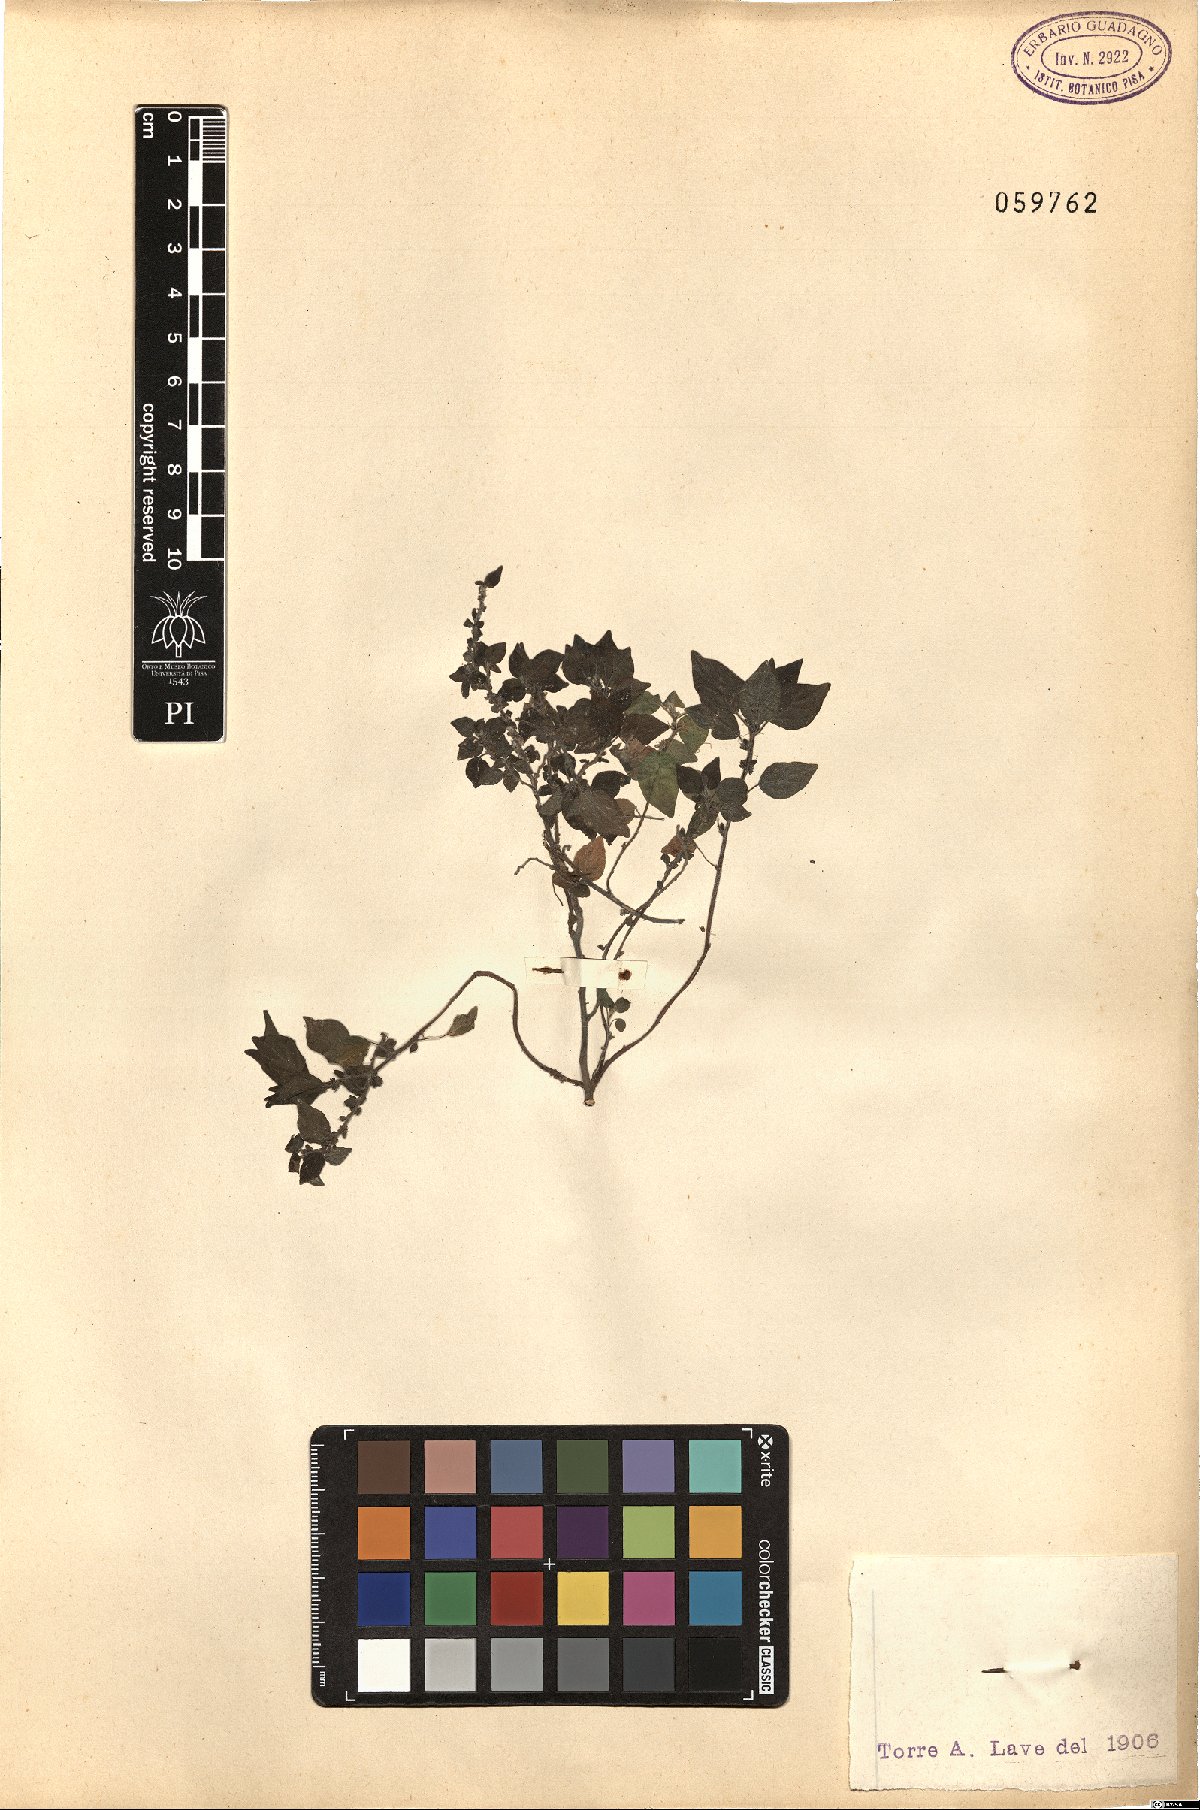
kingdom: Plantae
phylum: Tracheophyta
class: Magnoliopsida
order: Rosales
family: Urticaceae
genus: Parietaria
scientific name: Parietaria
